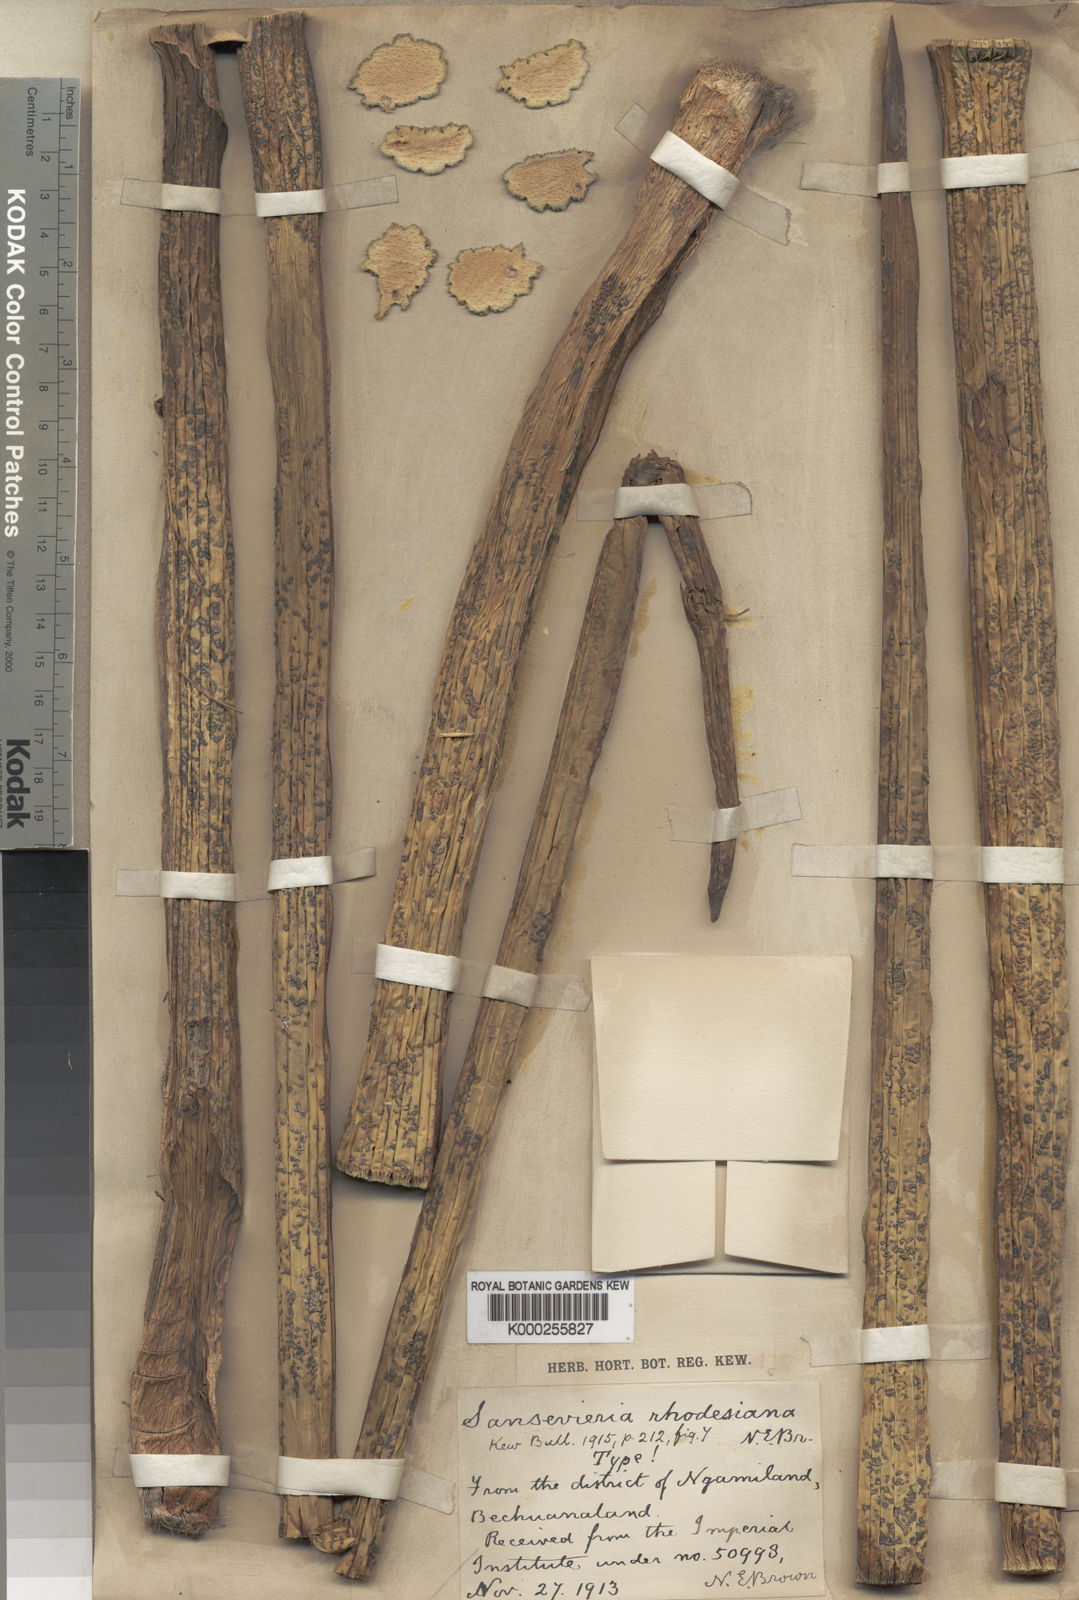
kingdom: Plantae
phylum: Tracheophyta
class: Liliopsida
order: Asparagales
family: Asparagaceae
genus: Dracaena
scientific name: Dracaena pearsonii
